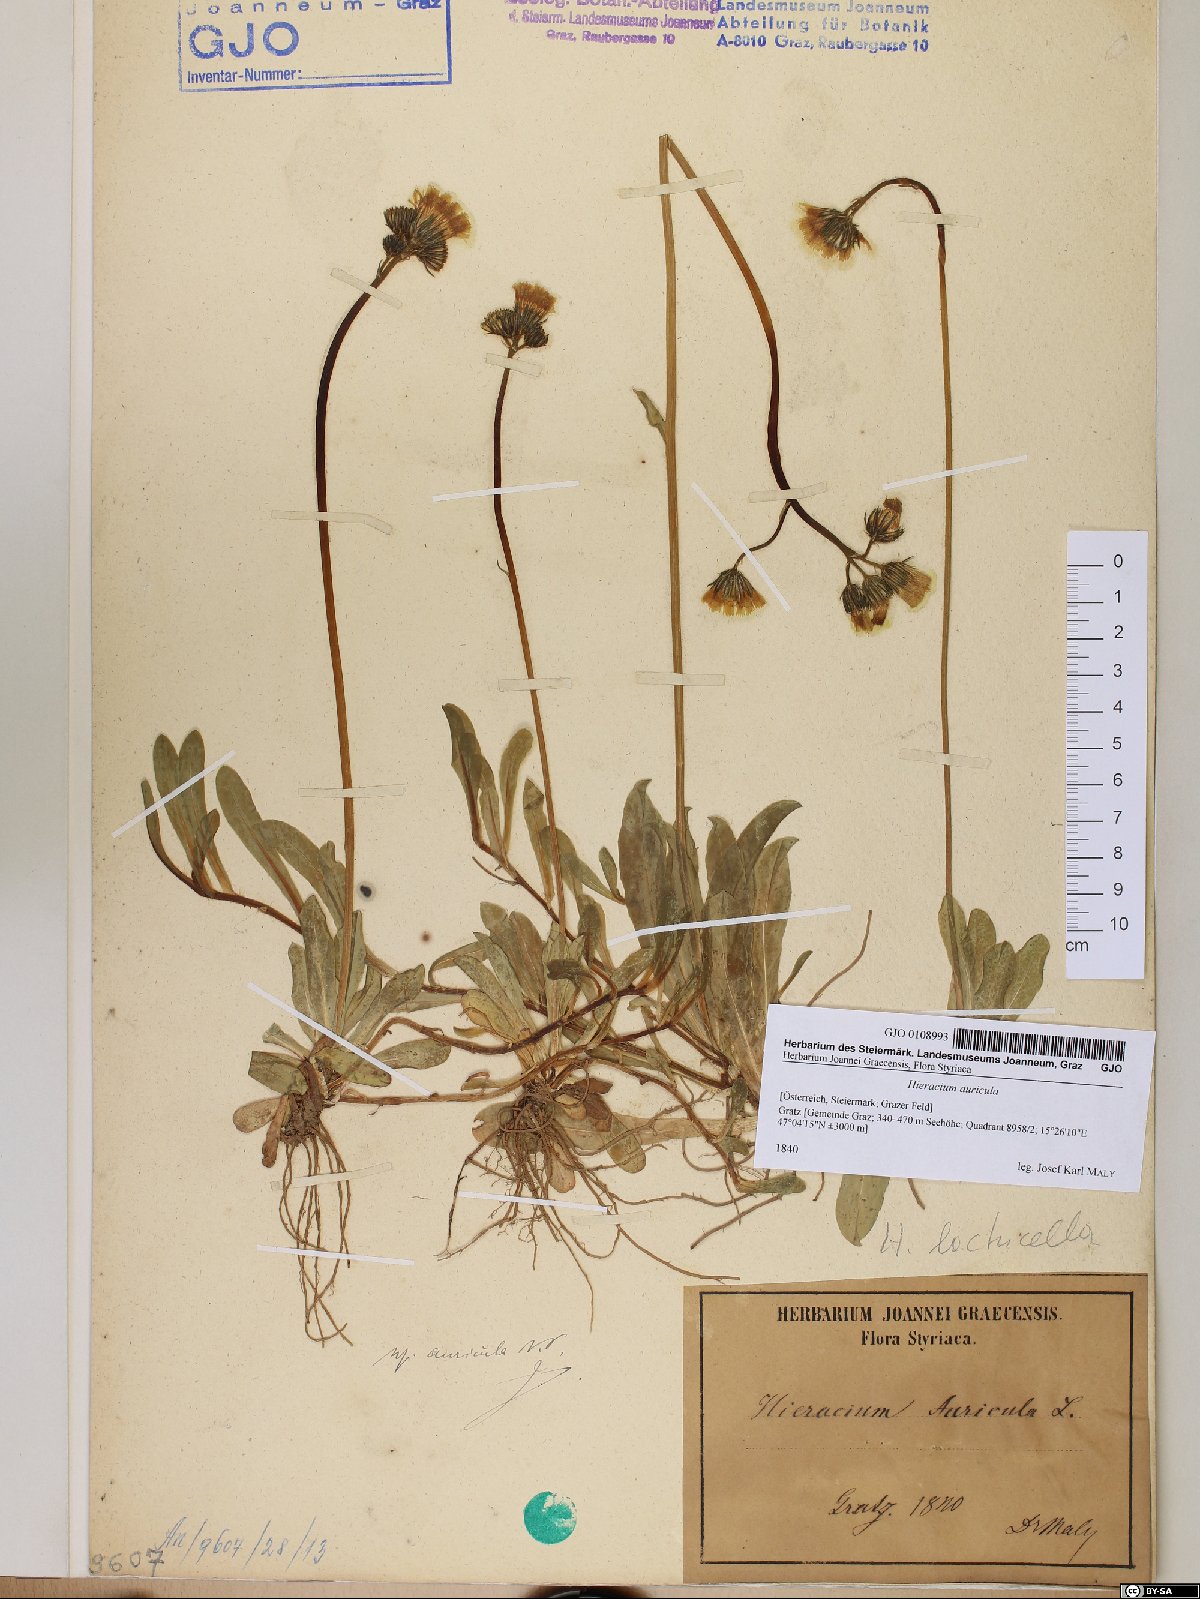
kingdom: Plantae
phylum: Tracheophyta
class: Magnoliopsida
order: Asterales
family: Asteraceae
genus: Hieracium
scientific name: Hieracium auricula
